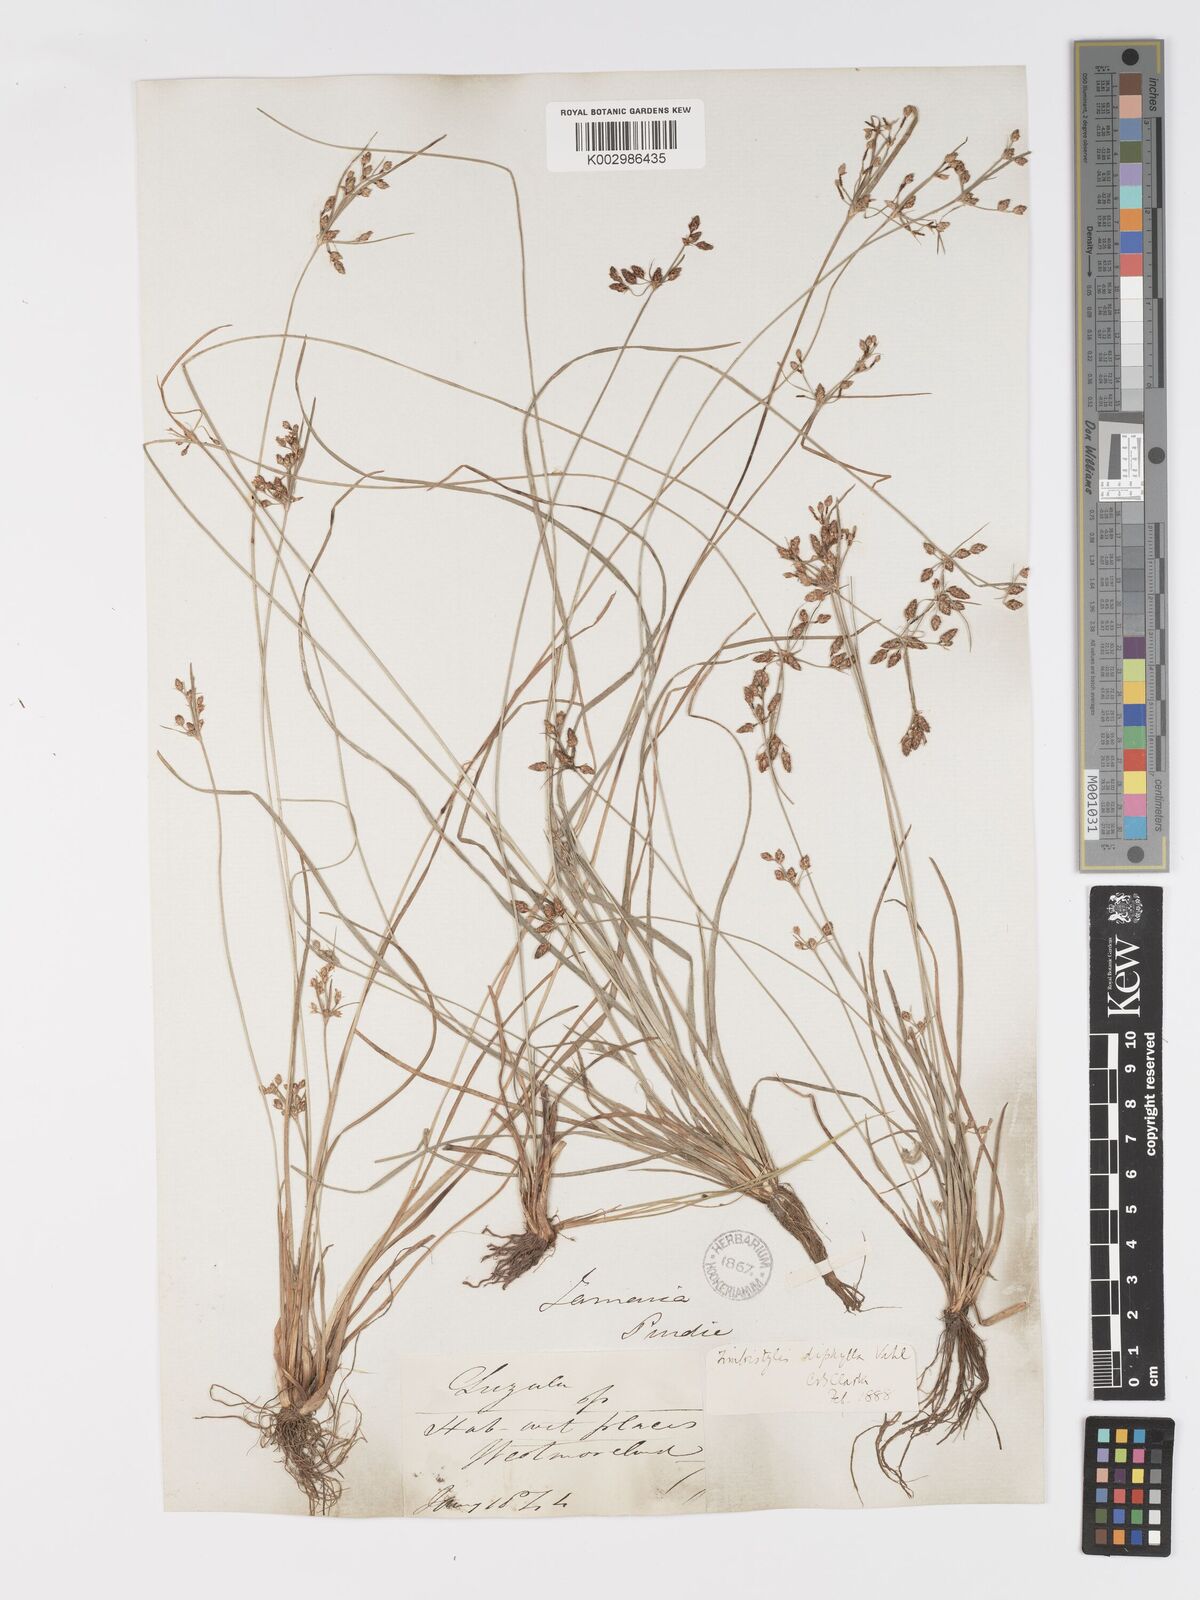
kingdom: Plantae
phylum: Tracheophyta
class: Liliopsida
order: Poales
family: Cyperaceae
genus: Fimbristylis
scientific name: Fimbristylis dichotoma
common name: Forked fimbry
